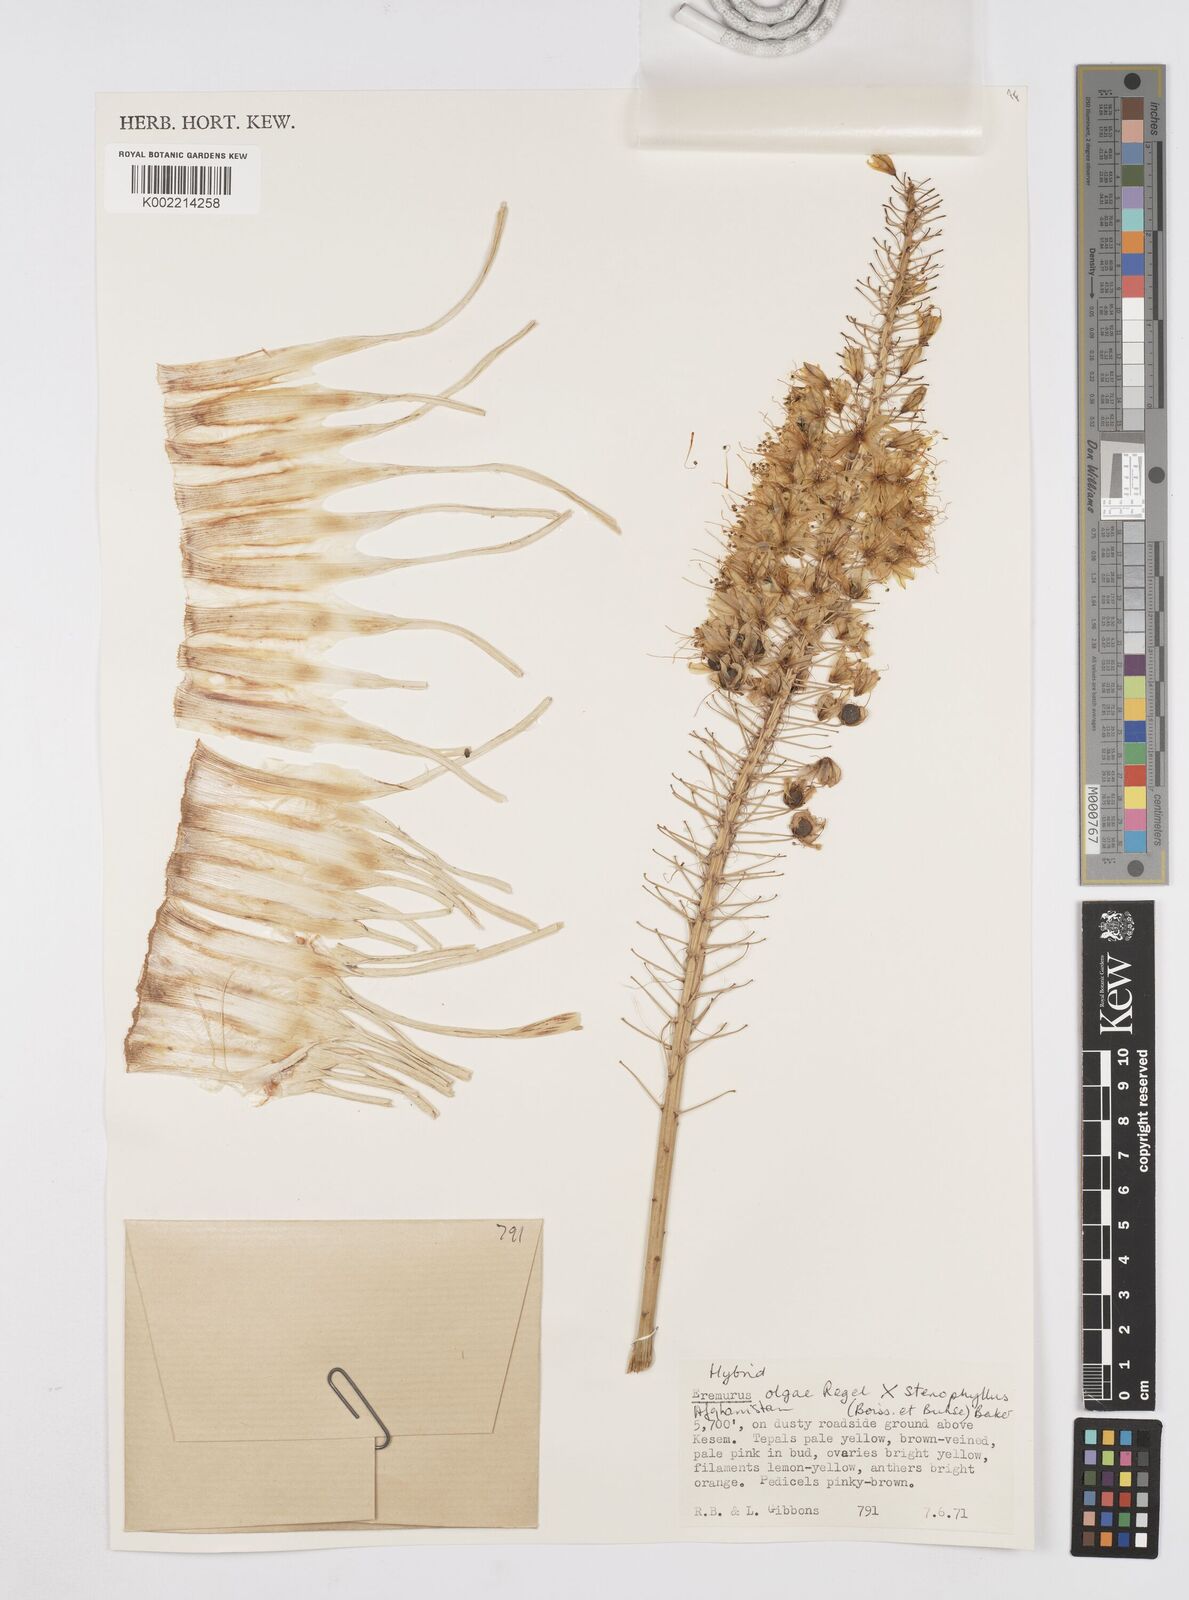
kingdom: Plantae
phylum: Tracheophyta
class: Liliopsida
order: Asparagales
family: Asphodelaceae
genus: Eremurus
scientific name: Eremurus olgae
